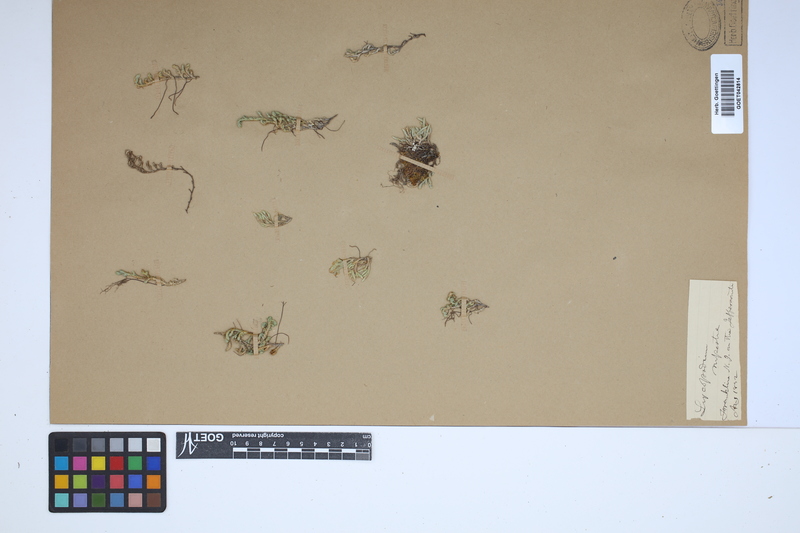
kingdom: Plantae
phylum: Tracheophyta
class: Lycopodiopsida
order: Selaginellales
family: Selaginellaceae
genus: Selaginella
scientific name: Selaginella rupestris
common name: Dwarf spikemoss
